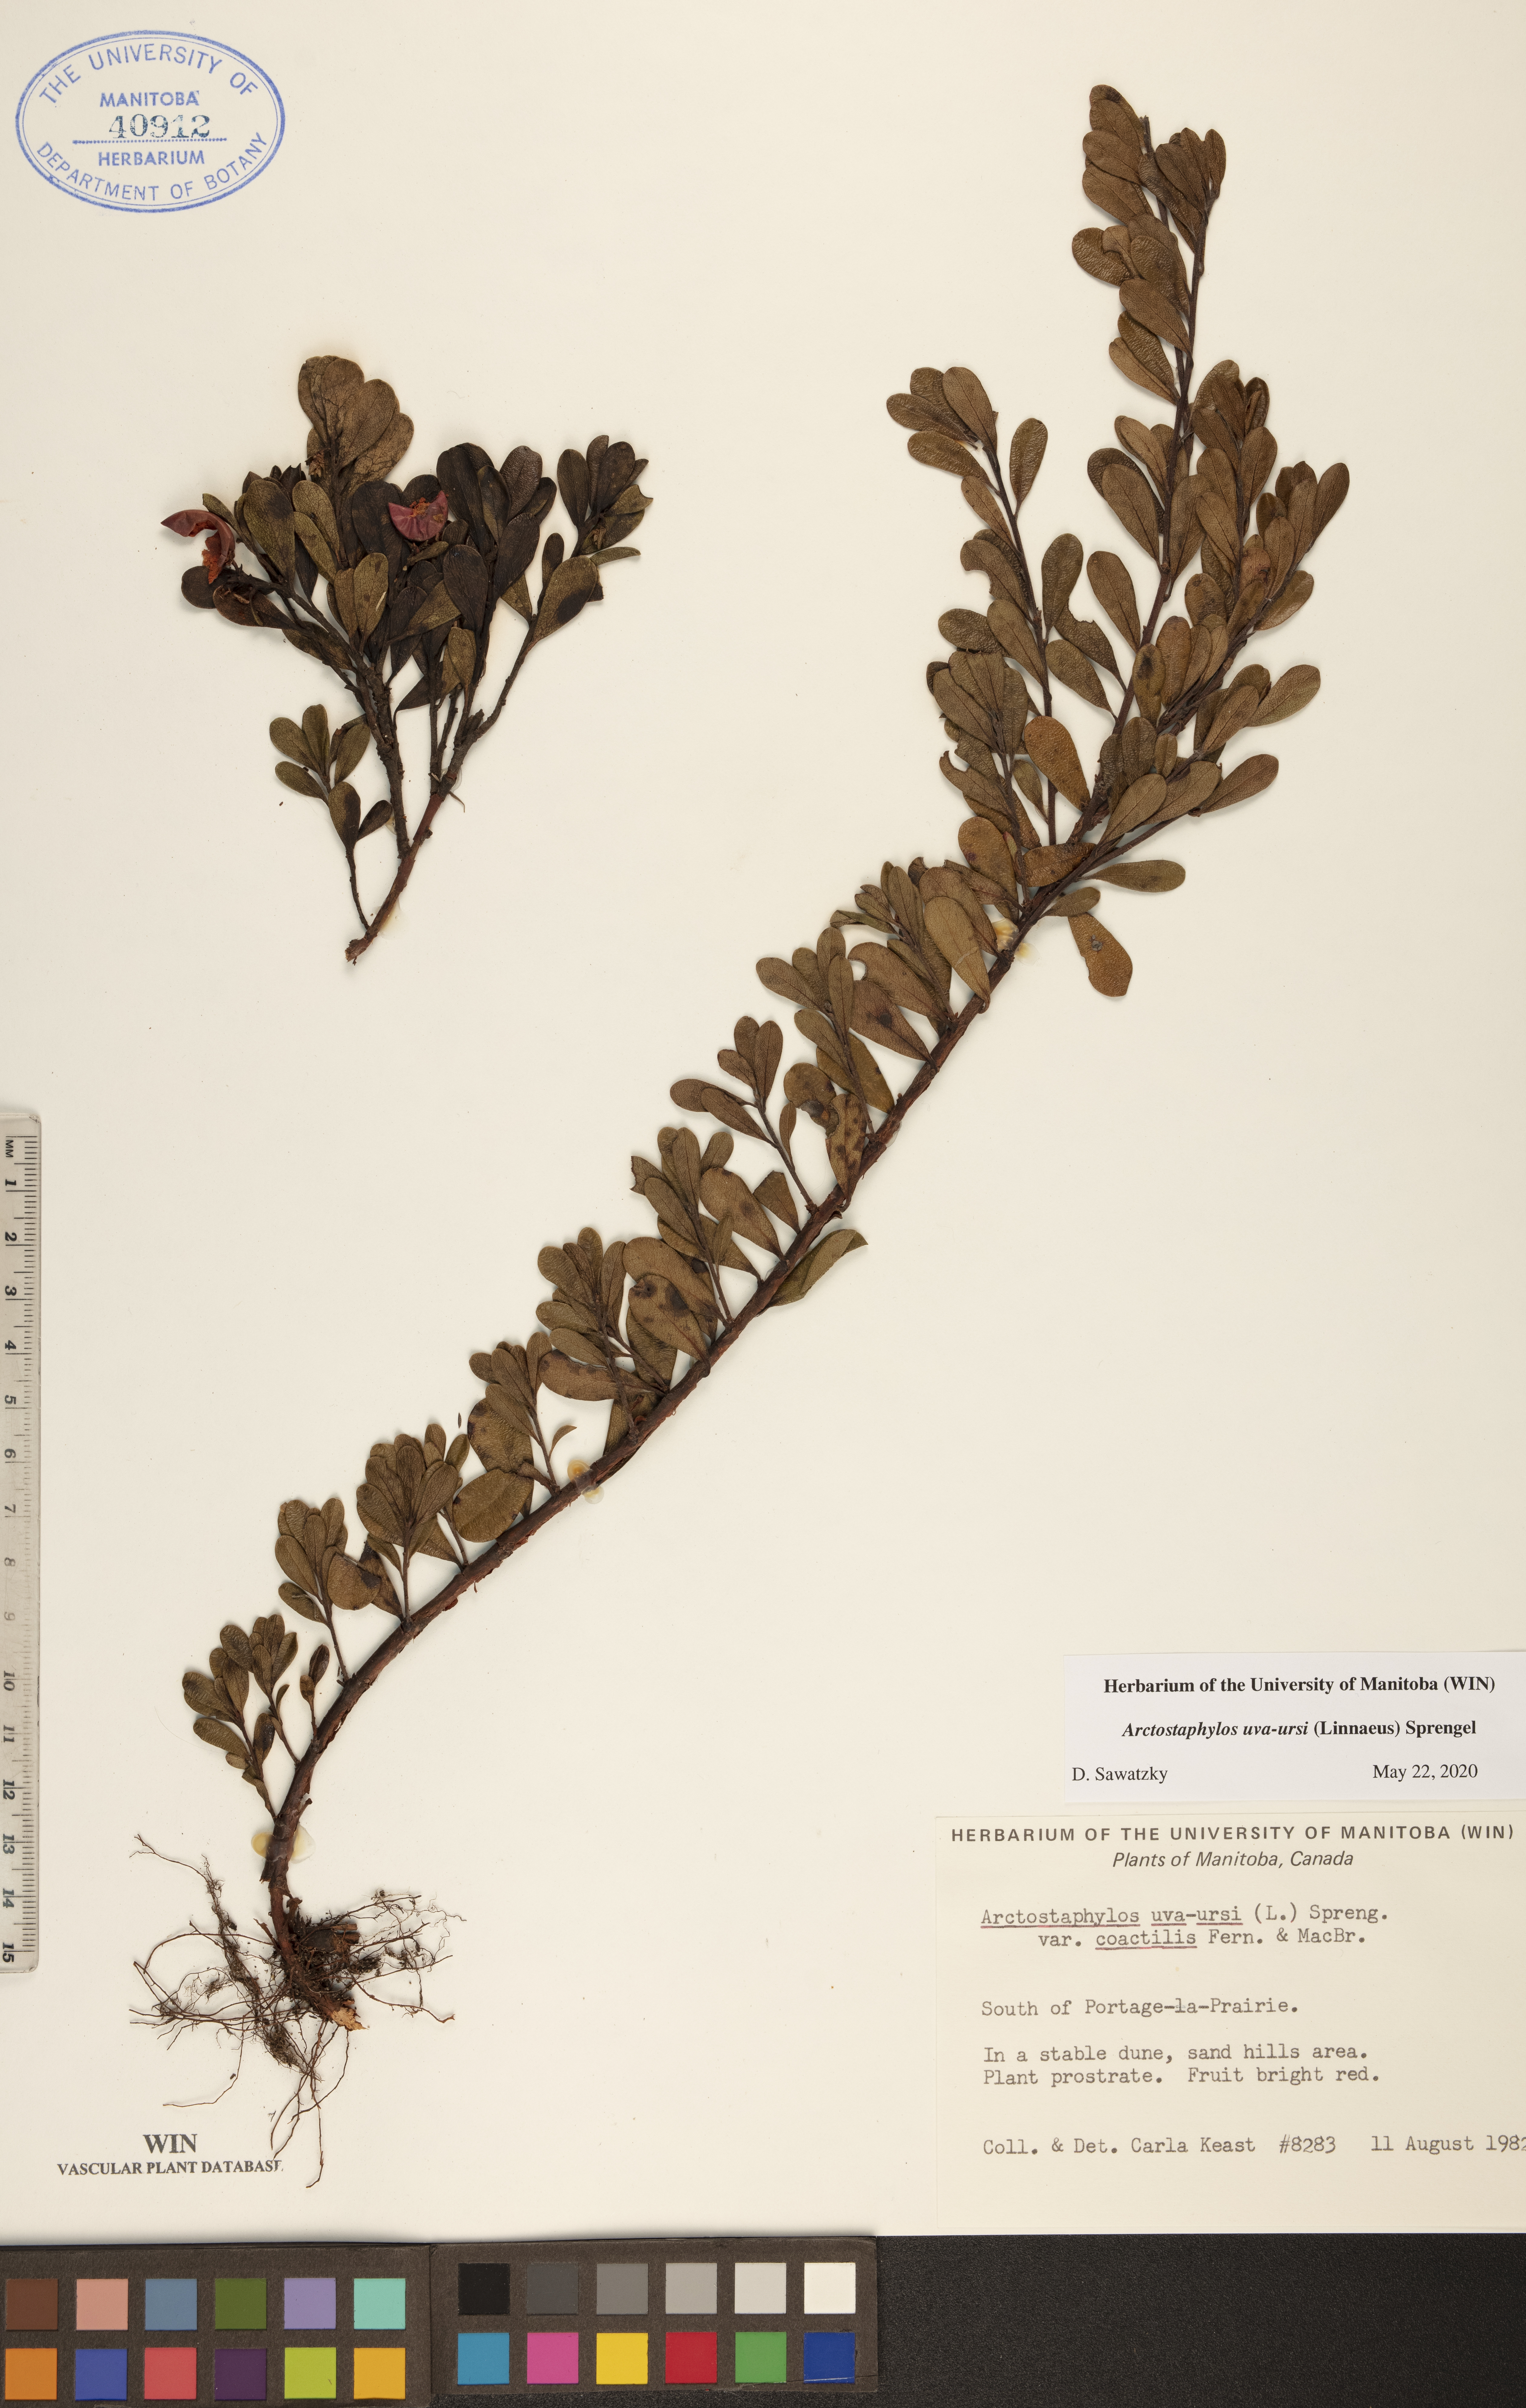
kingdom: Plantae
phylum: Tracheophyta
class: Magnoliopsida
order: Ericales
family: Ericaceae
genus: Arctostaphylos
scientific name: Arctostaphylos uva-ursi
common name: Bearberry
